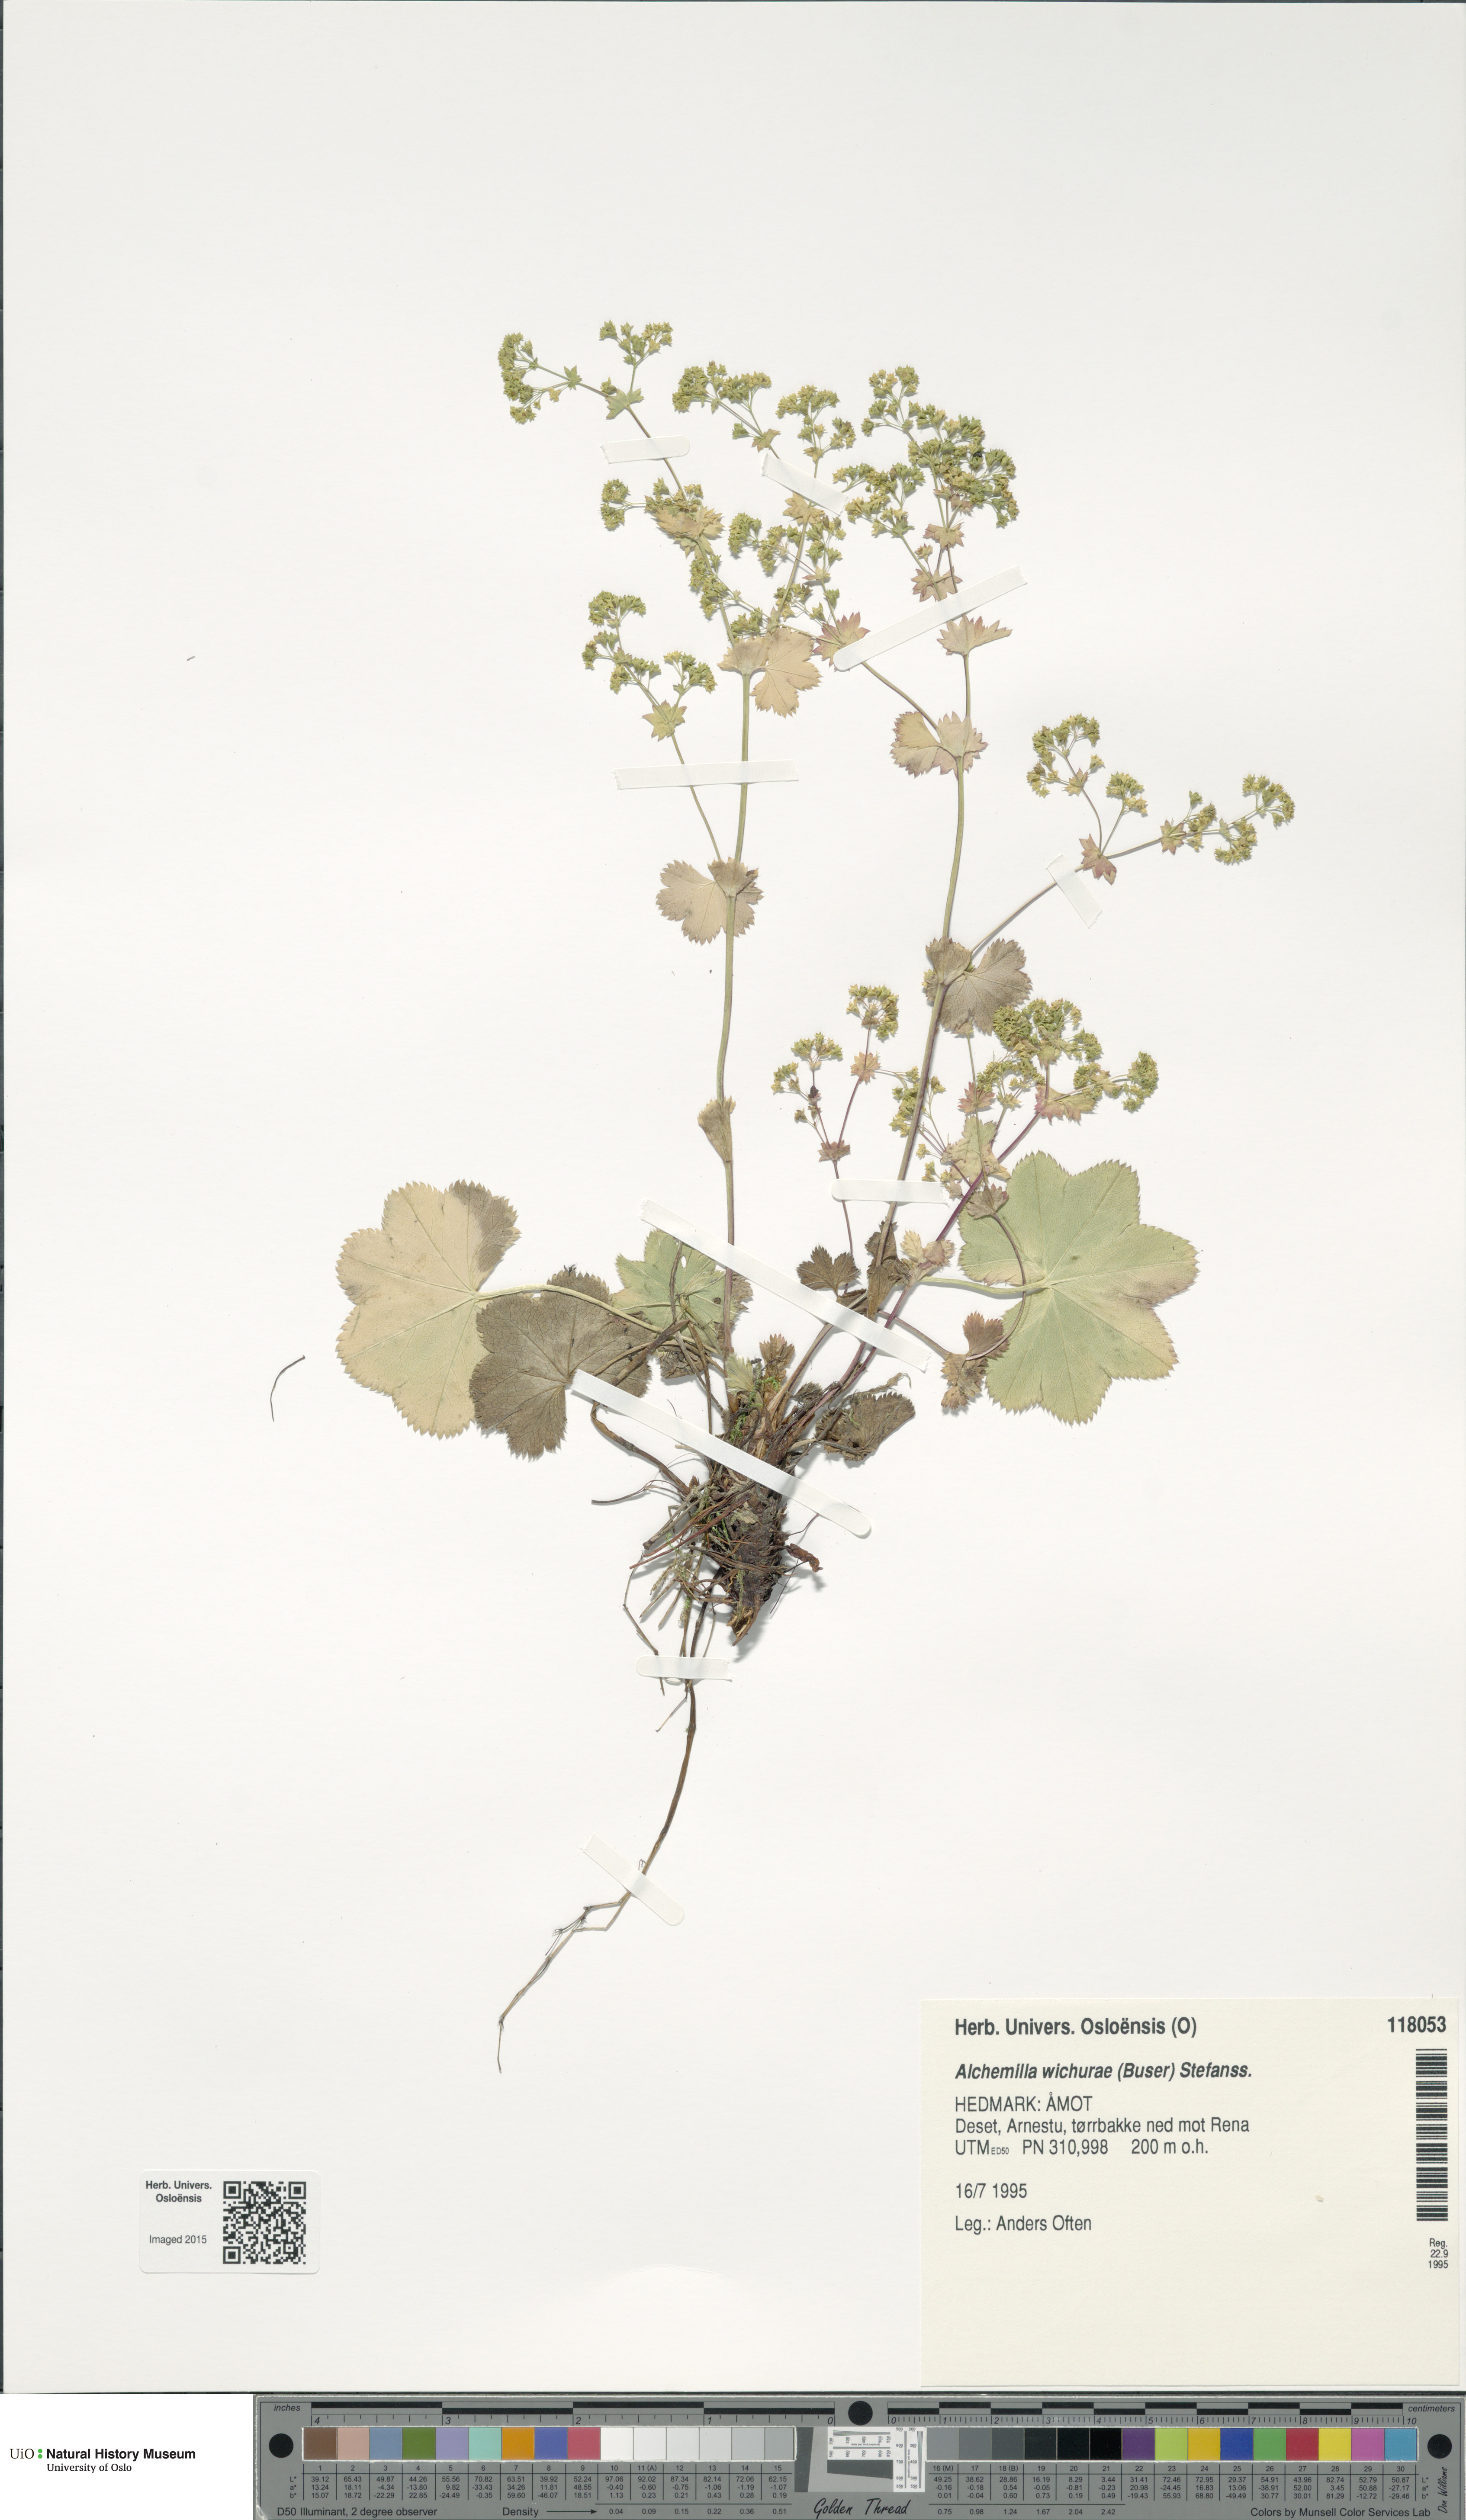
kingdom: Plantae
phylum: Tracheophyta
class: Magnoliopsida
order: Rosales
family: Rosaceae
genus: Alchemilla
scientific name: Alchemilla wichurae
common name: Rock lady's mantle
